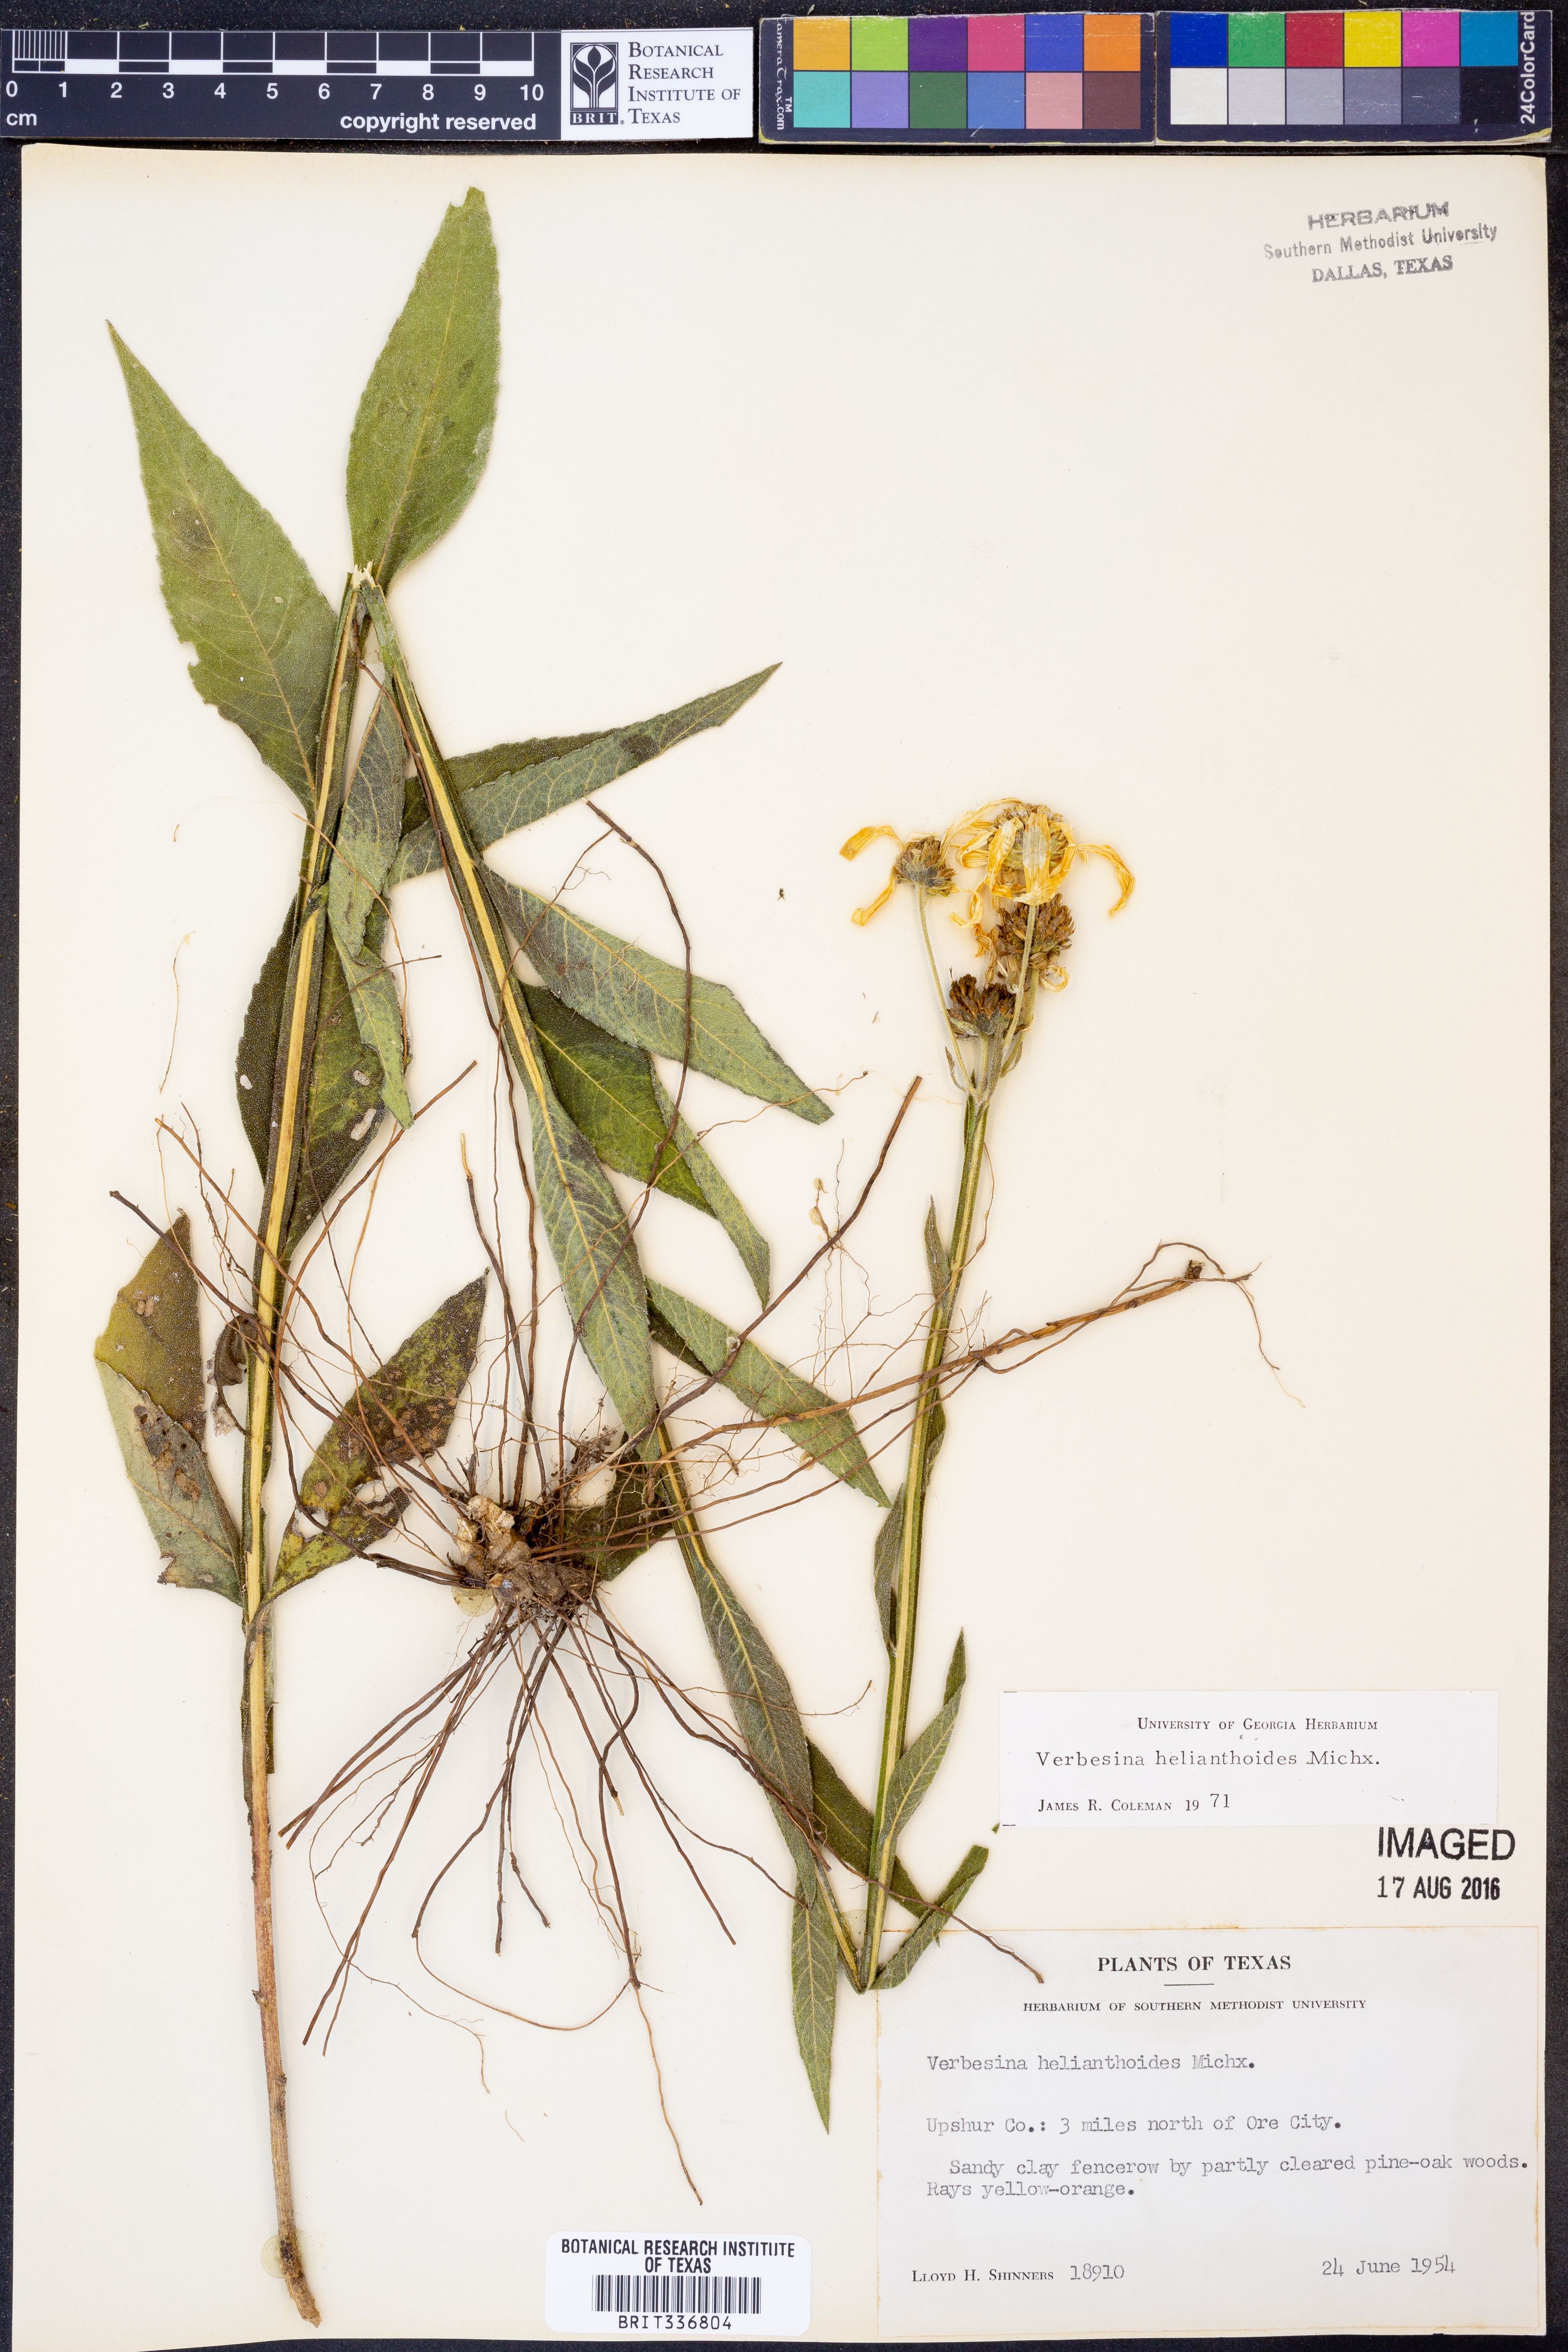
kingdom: Plantae
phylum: Tracheophyta
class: Magnoliopsida
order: Asterales
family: Asteraceae
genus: Verbesina
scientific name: Verbesina helianthoides
